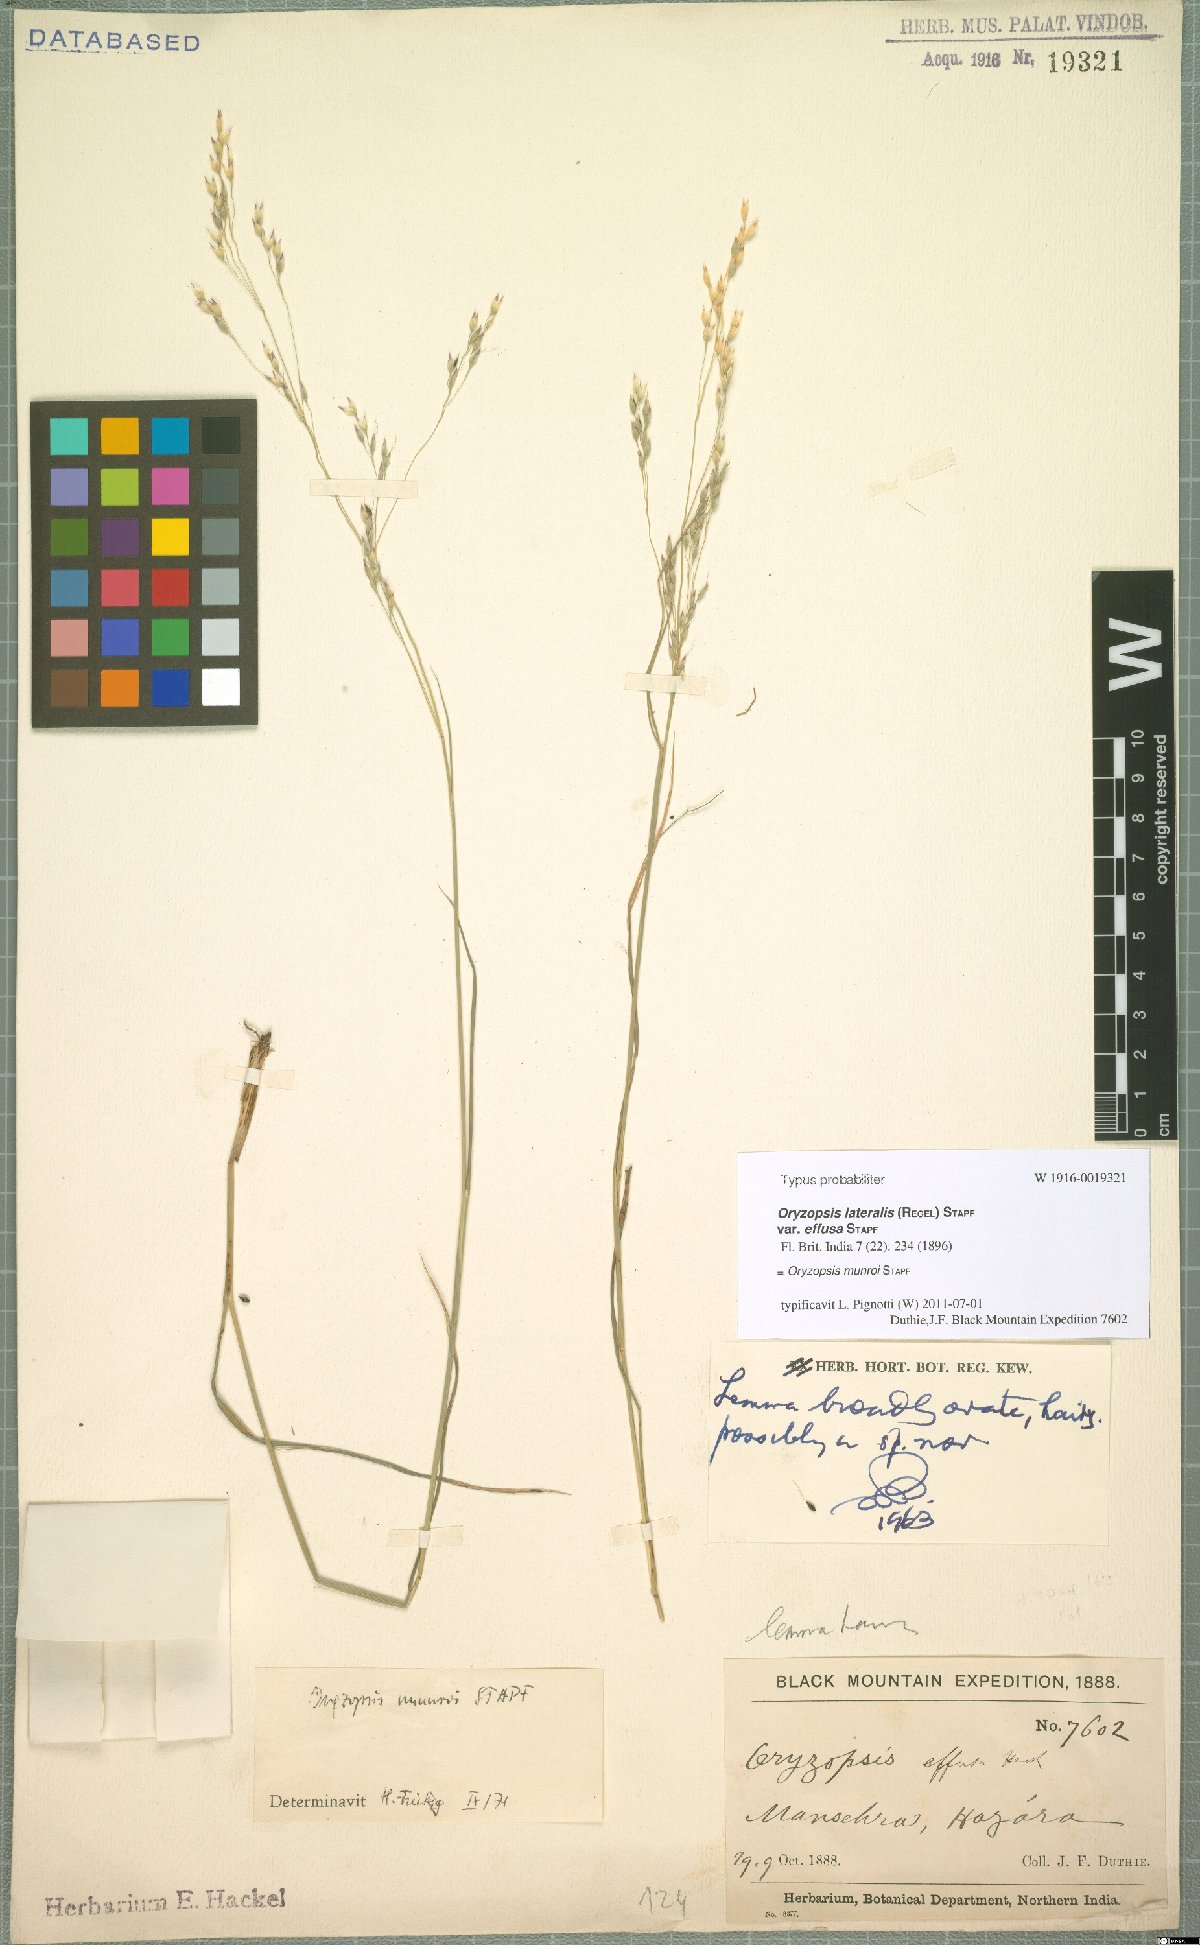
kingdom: Plantae
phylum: Tracheophyta
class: Liliopsida
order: Poales
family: Poaceae
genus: Piptatherum
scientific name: Piptatherum munroi
